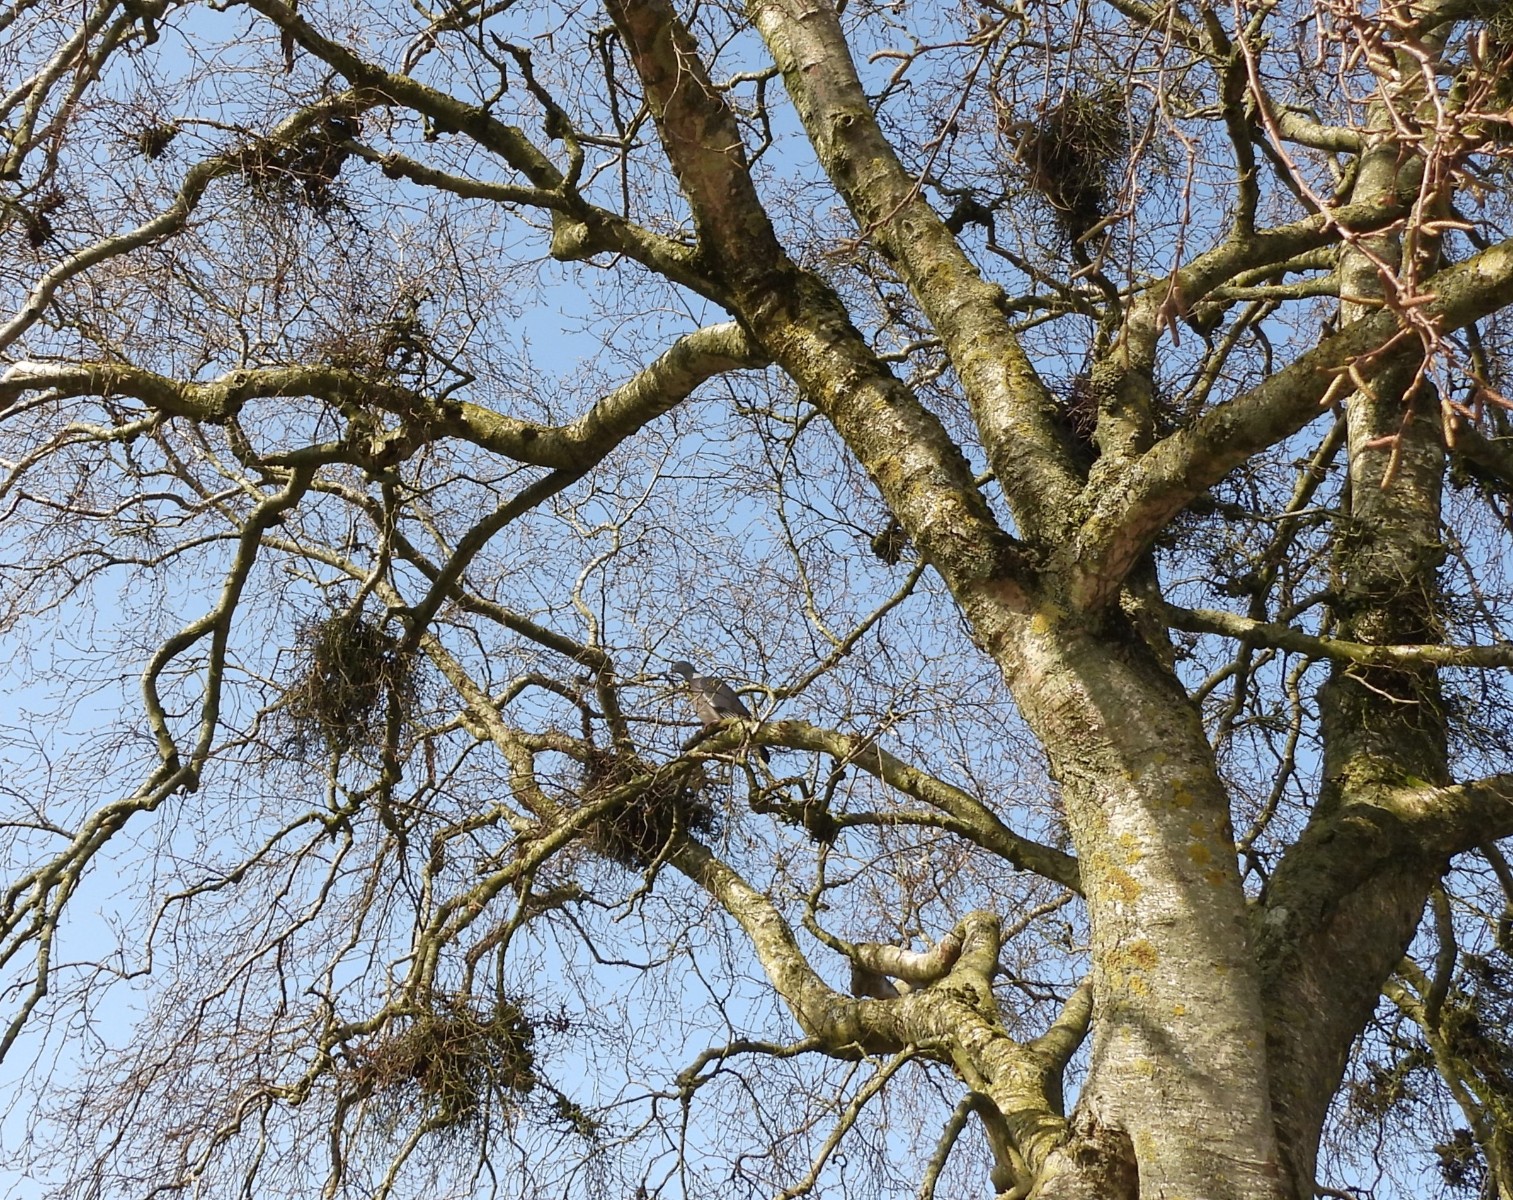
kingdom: Fungi
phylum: Ascomycota
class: Taphrinomycetes
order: Taphrinales
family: Taphrinaceae
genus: Taphrina
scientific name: Taphrina betulina
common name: hekse-sækdug
